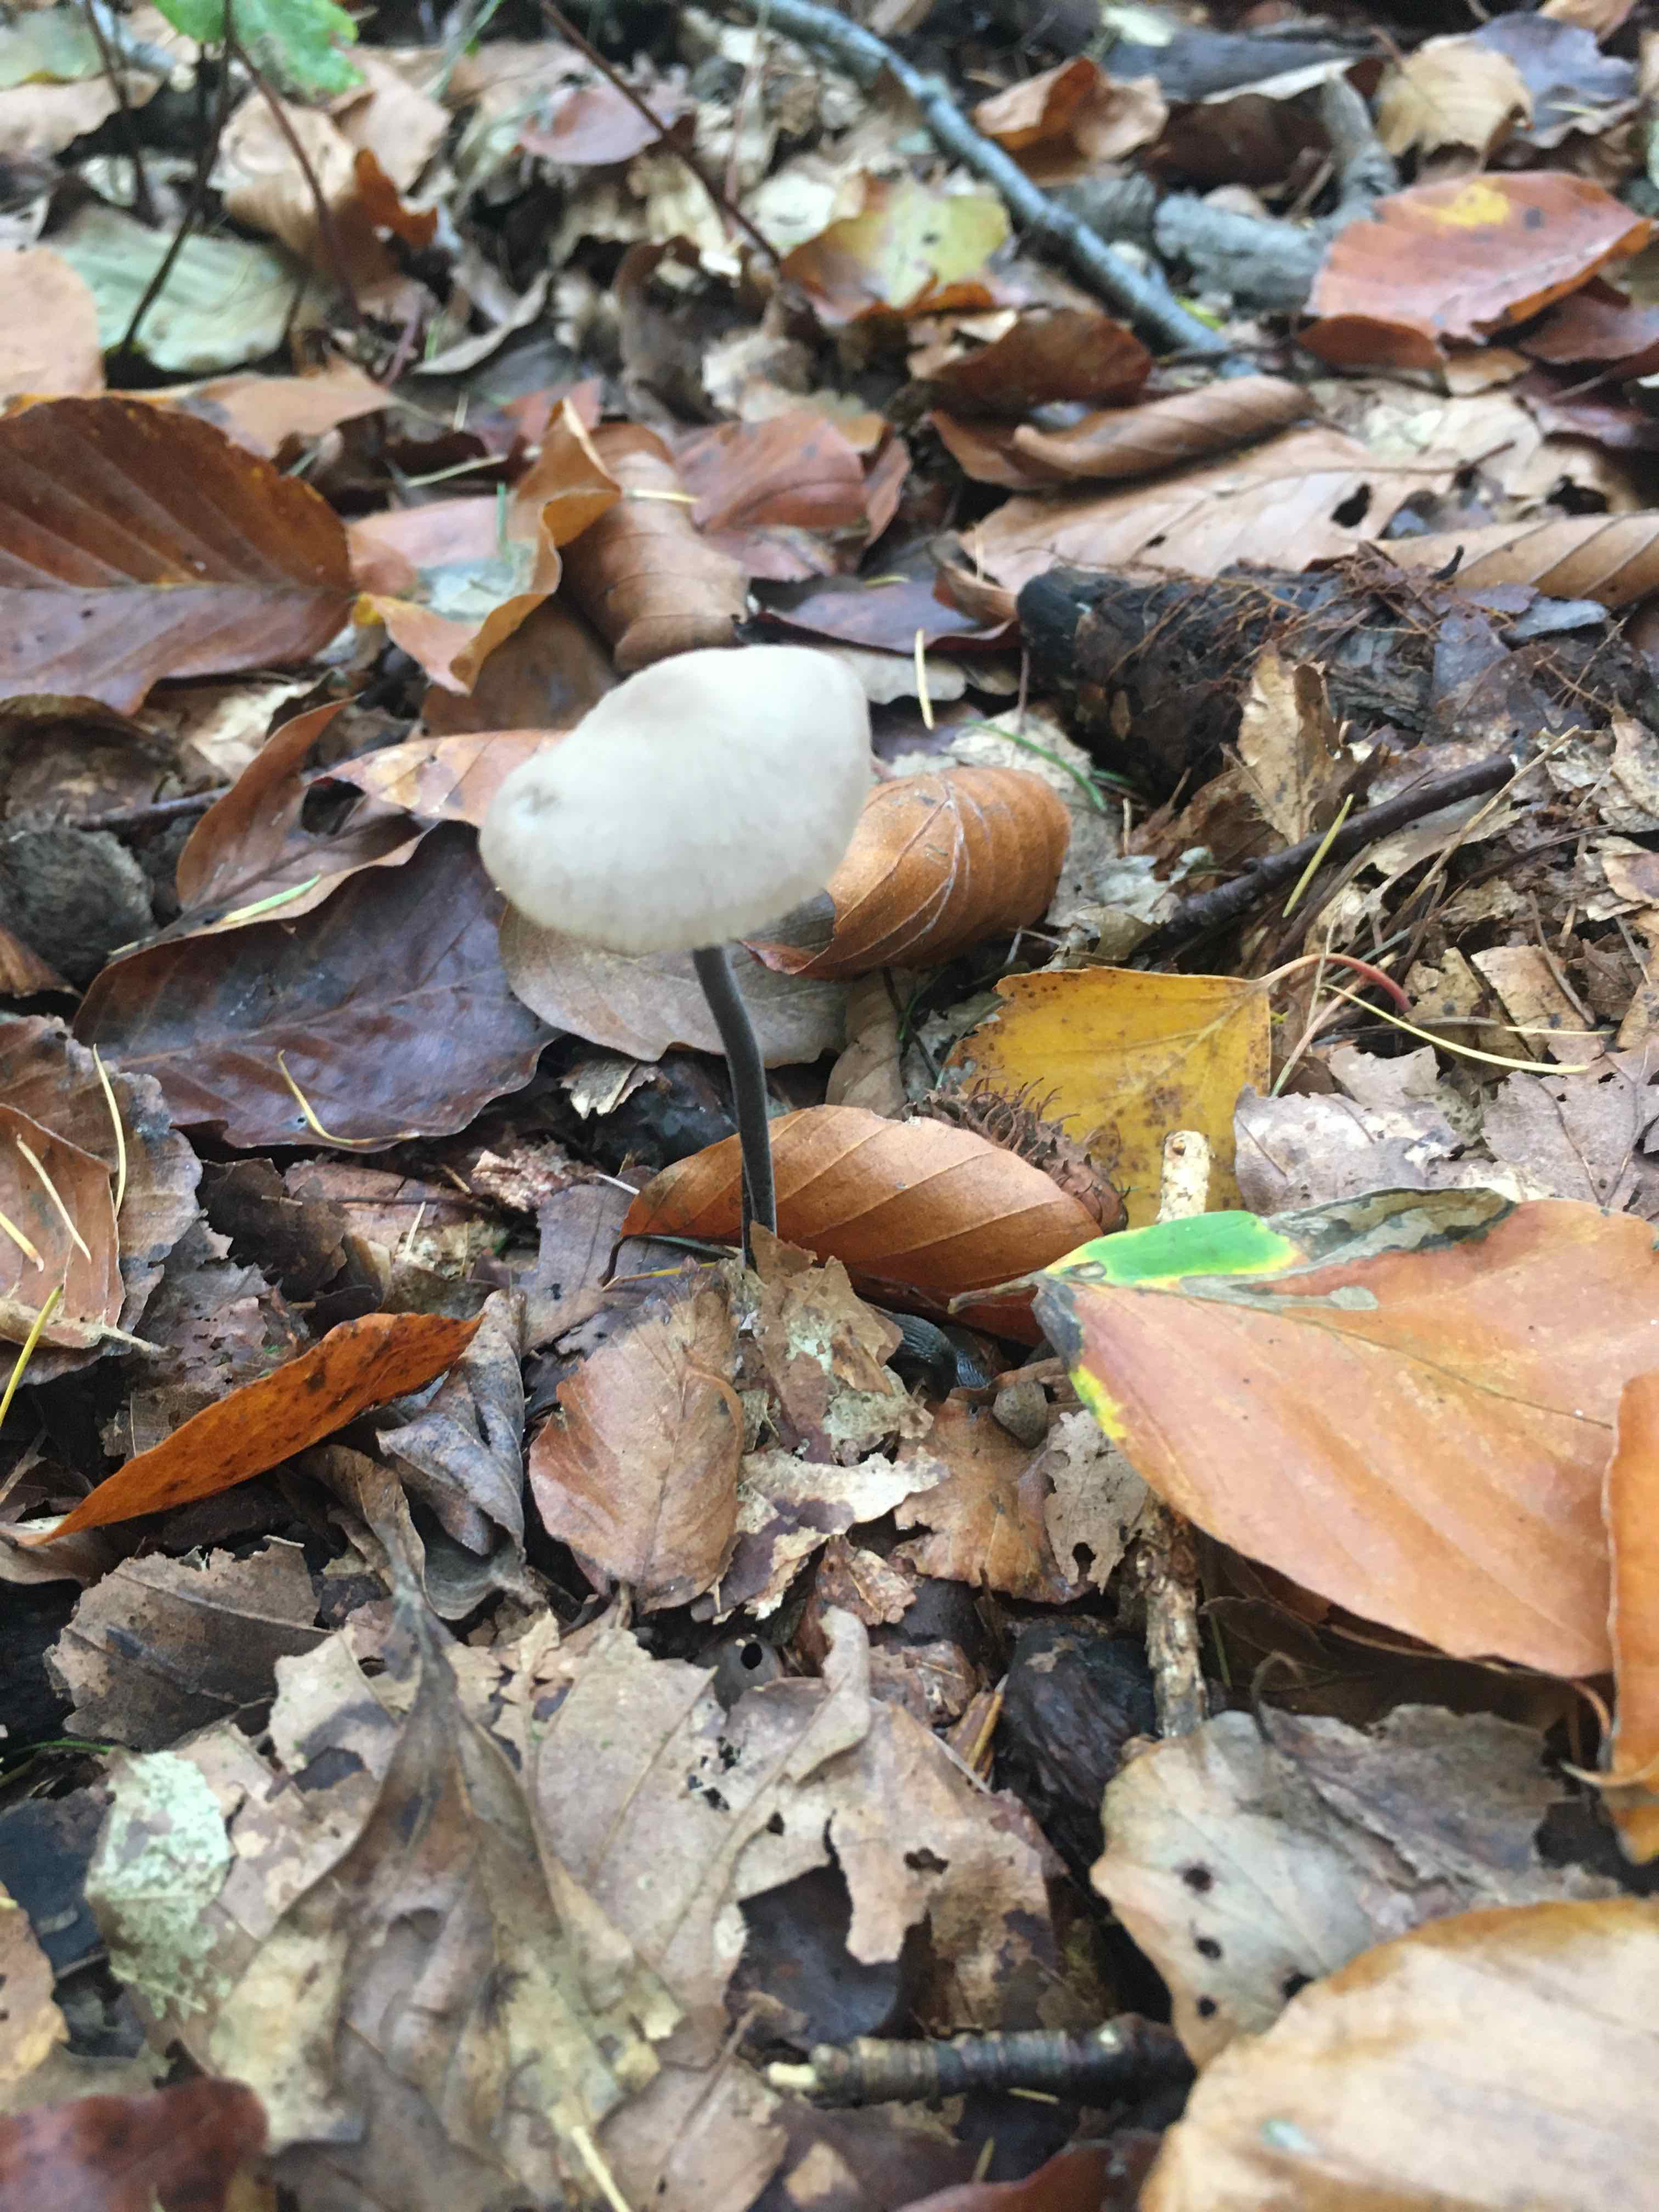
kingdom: Fungi
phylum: Basidiomycota
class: Agaricomycetes
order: Agaricales
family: Omphalotaceae
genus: Mycetinis
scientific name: Mycetinis alliaceus
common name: stor løghat
